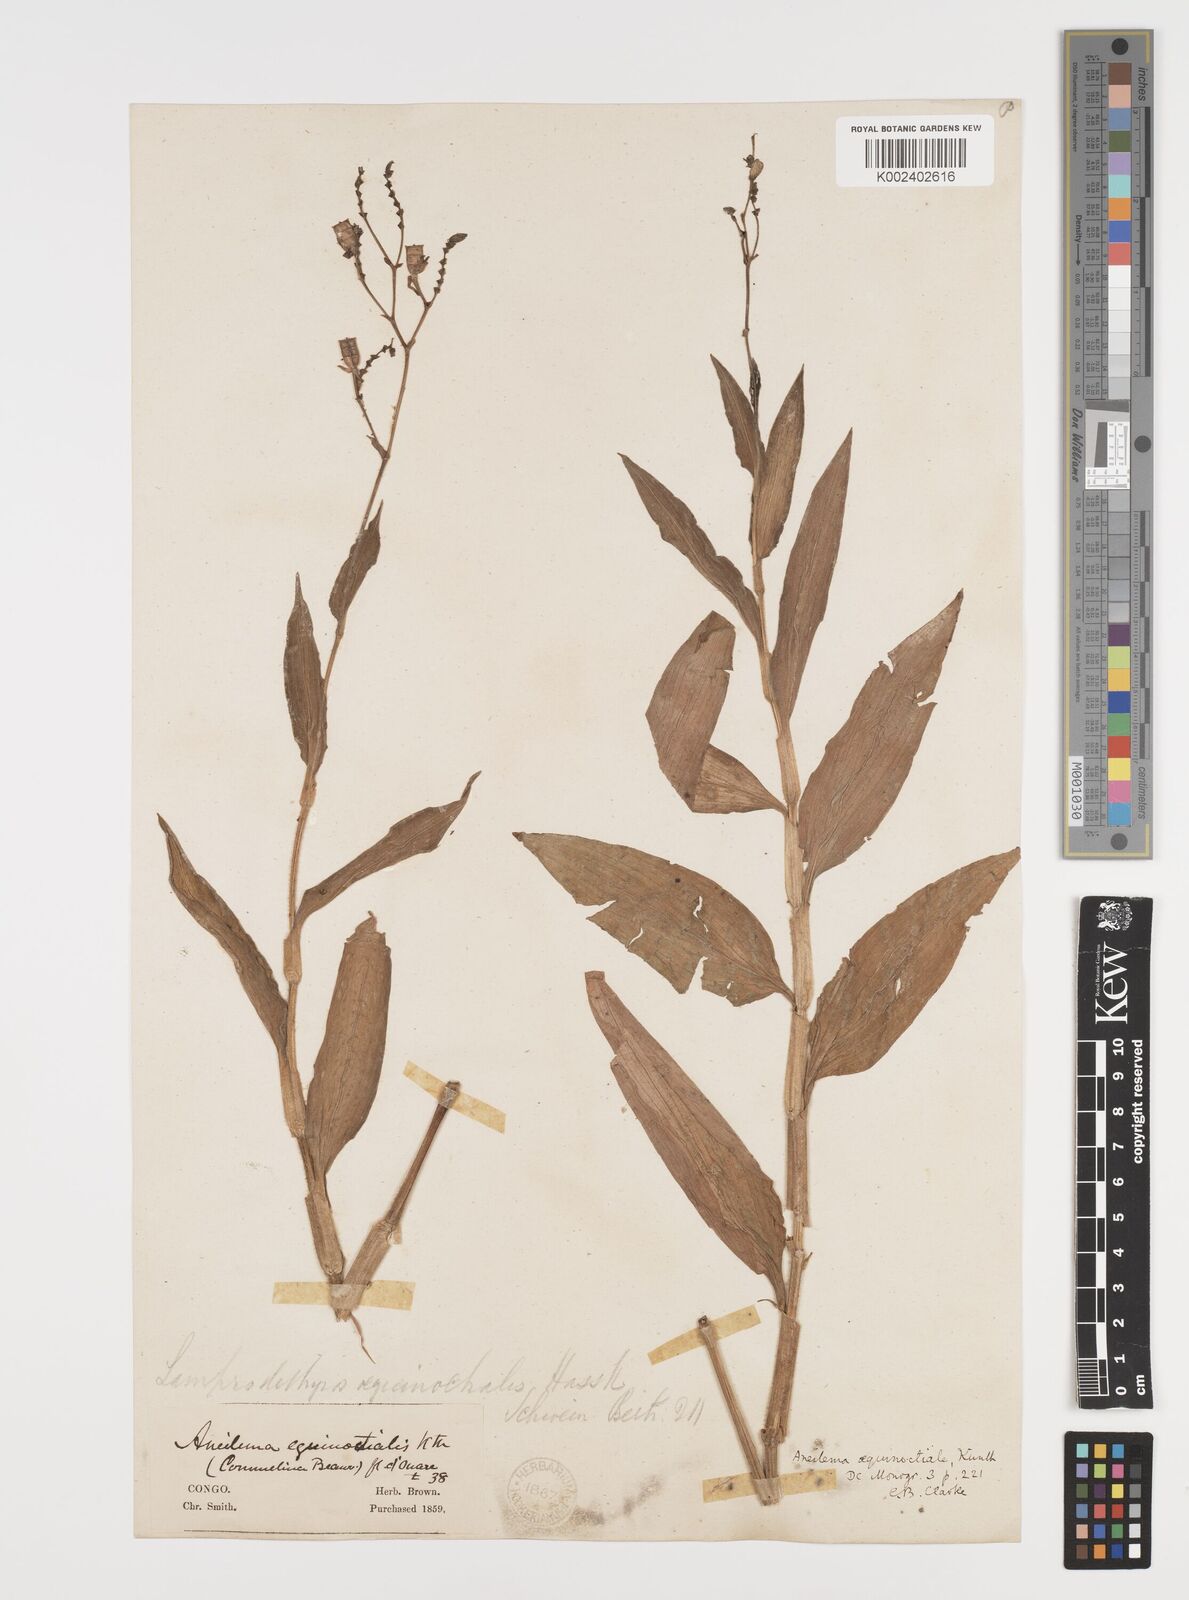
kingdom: Plantae
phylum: Tracheophyta
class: Liliopsida
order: Commelinales
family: Commelinaceae
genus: Aneilema
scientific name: Aneilema aequinoctiale
